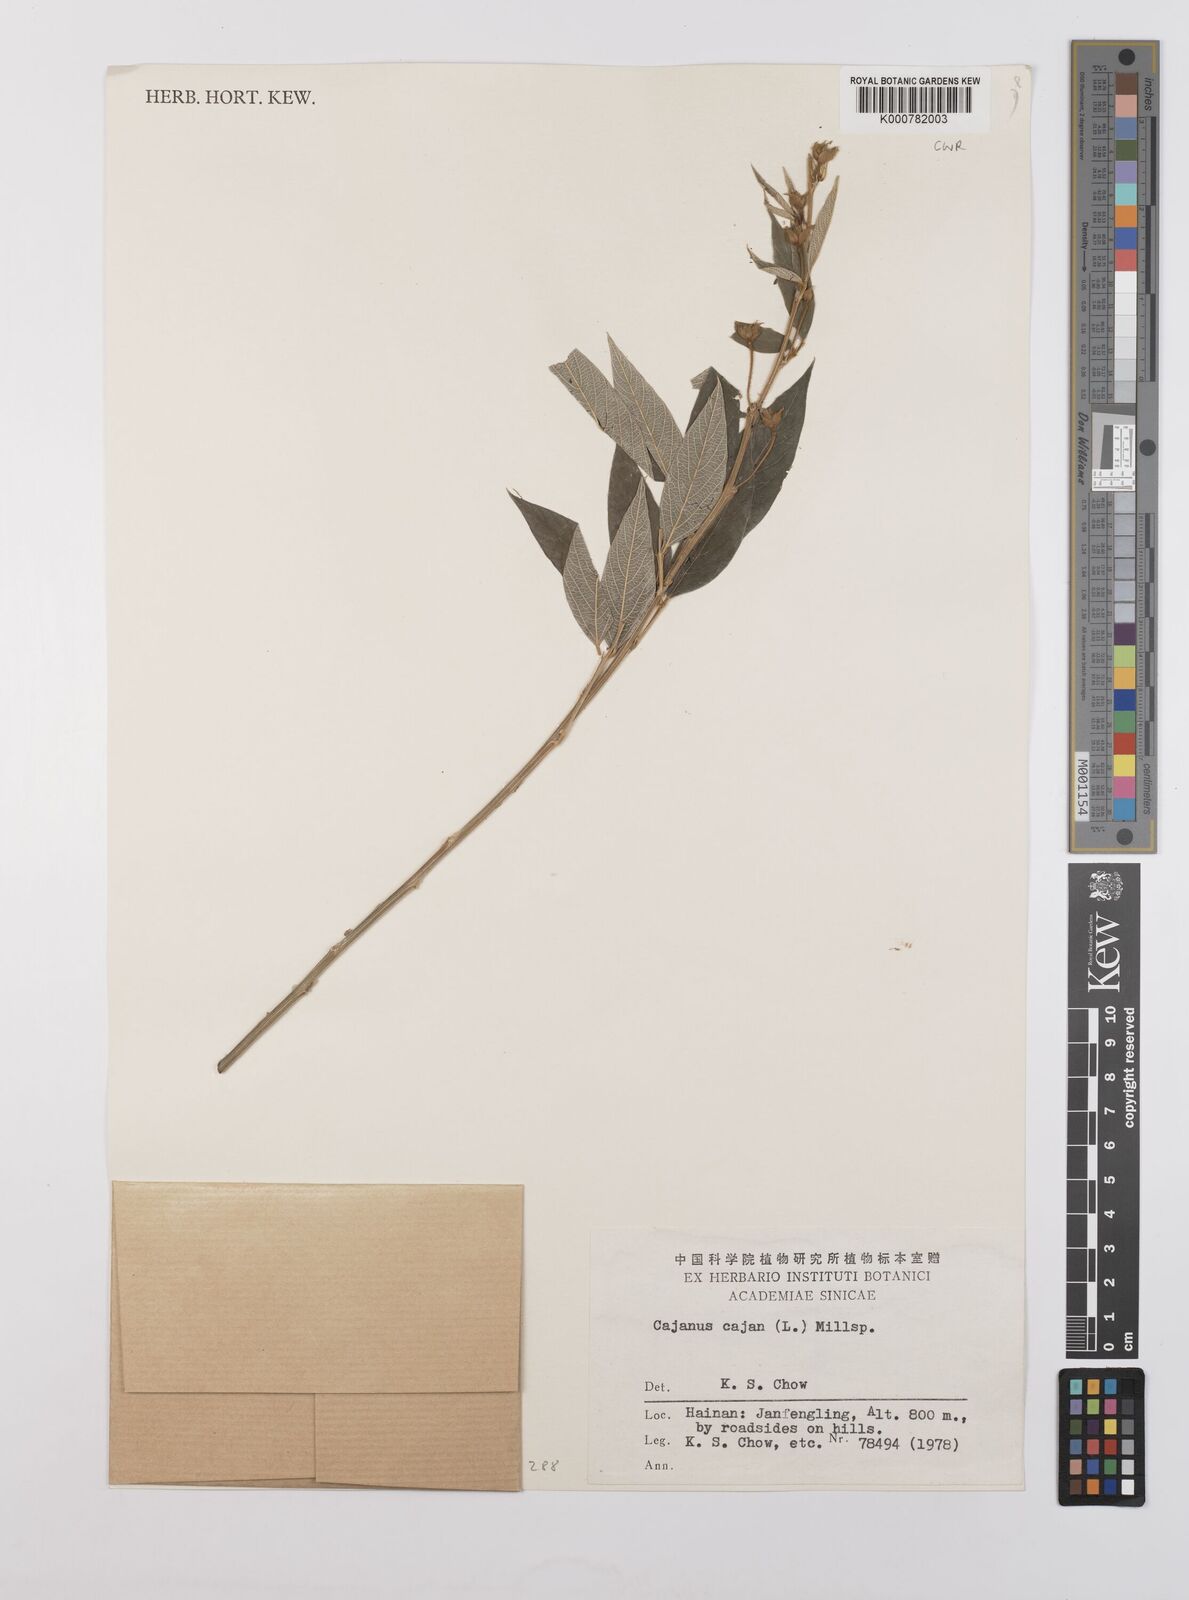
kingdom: Plantae
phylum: Tracheophyta
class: Magnoliopsida
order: Fabales
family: Fabaceae
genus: Cajanus
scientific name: Cajanus
